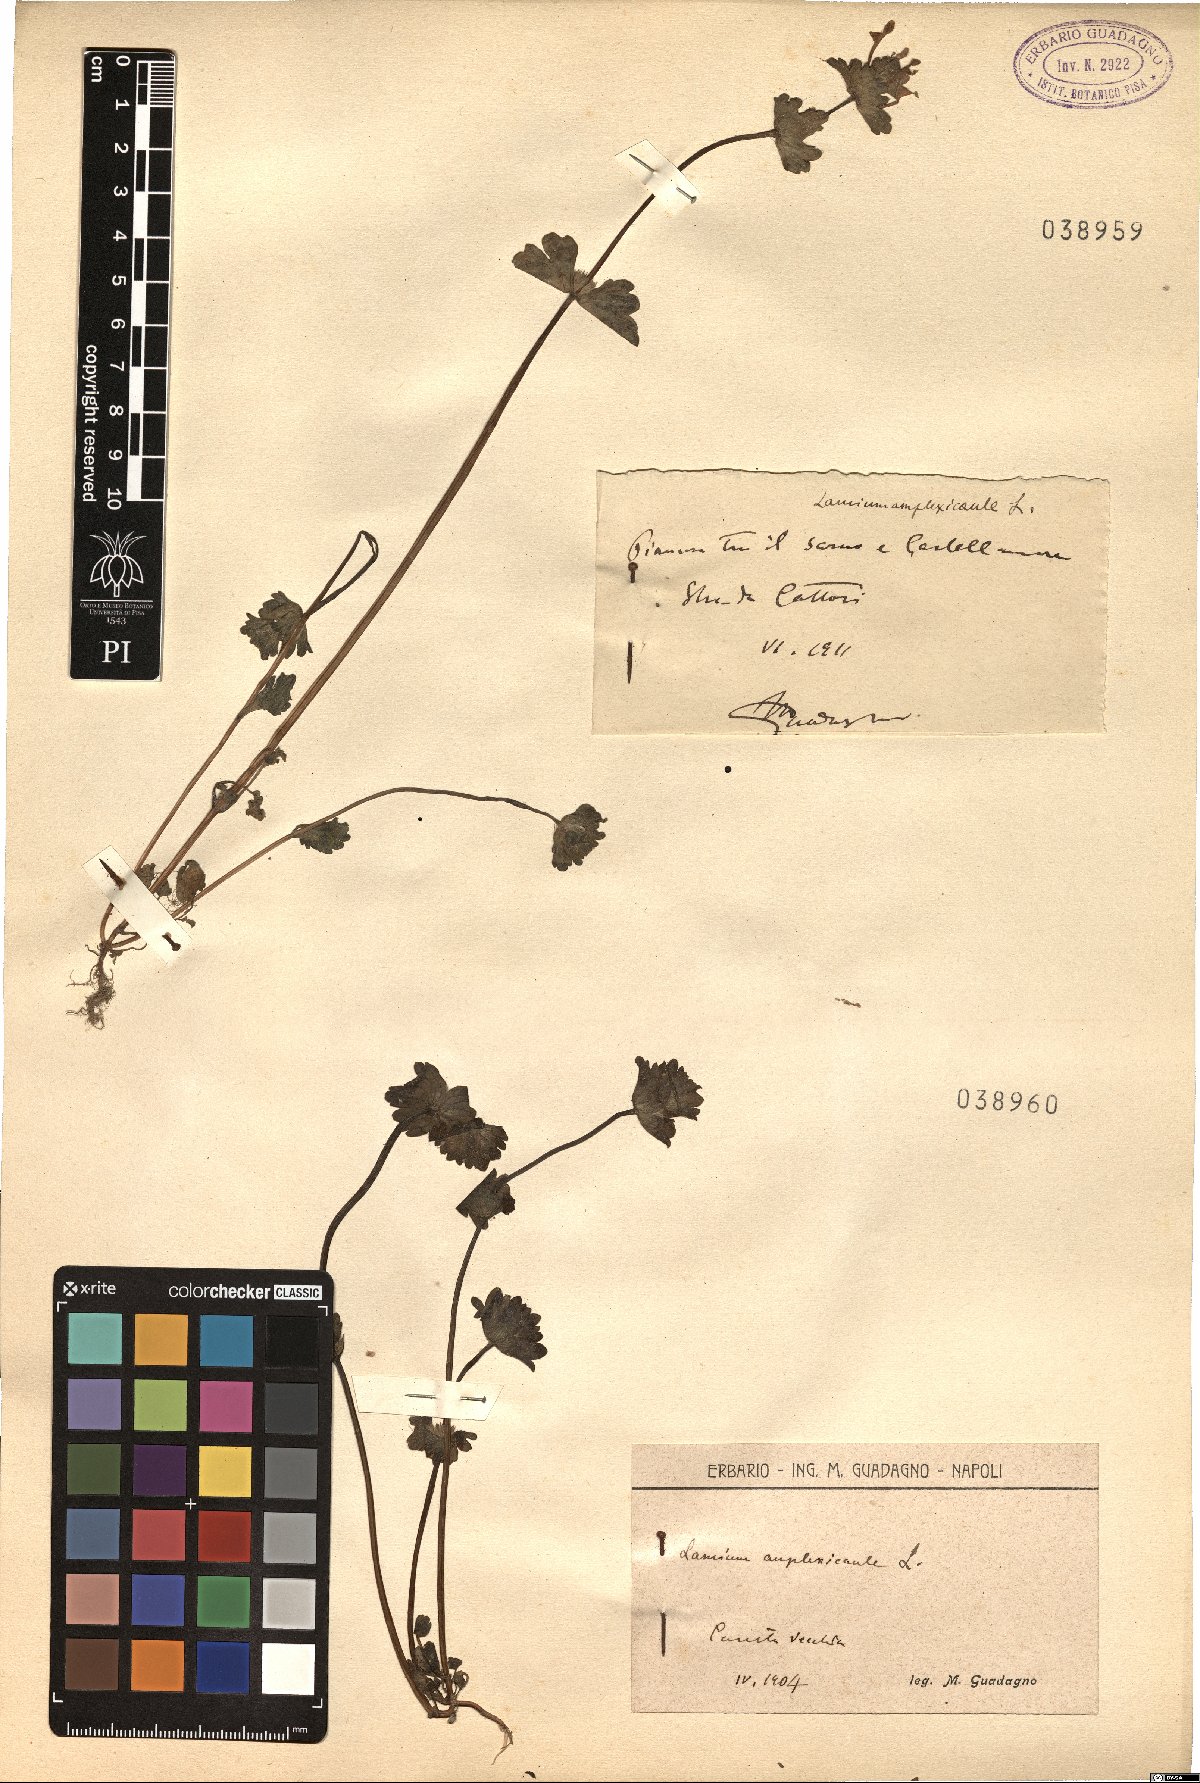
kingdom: Plantae
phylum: Tracheophyta
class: Magnoliopsida
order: Lamiales
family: Lamiaceae
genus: Lamium
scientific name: Lamium amplexicaule
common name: Henbit dead-nettle
